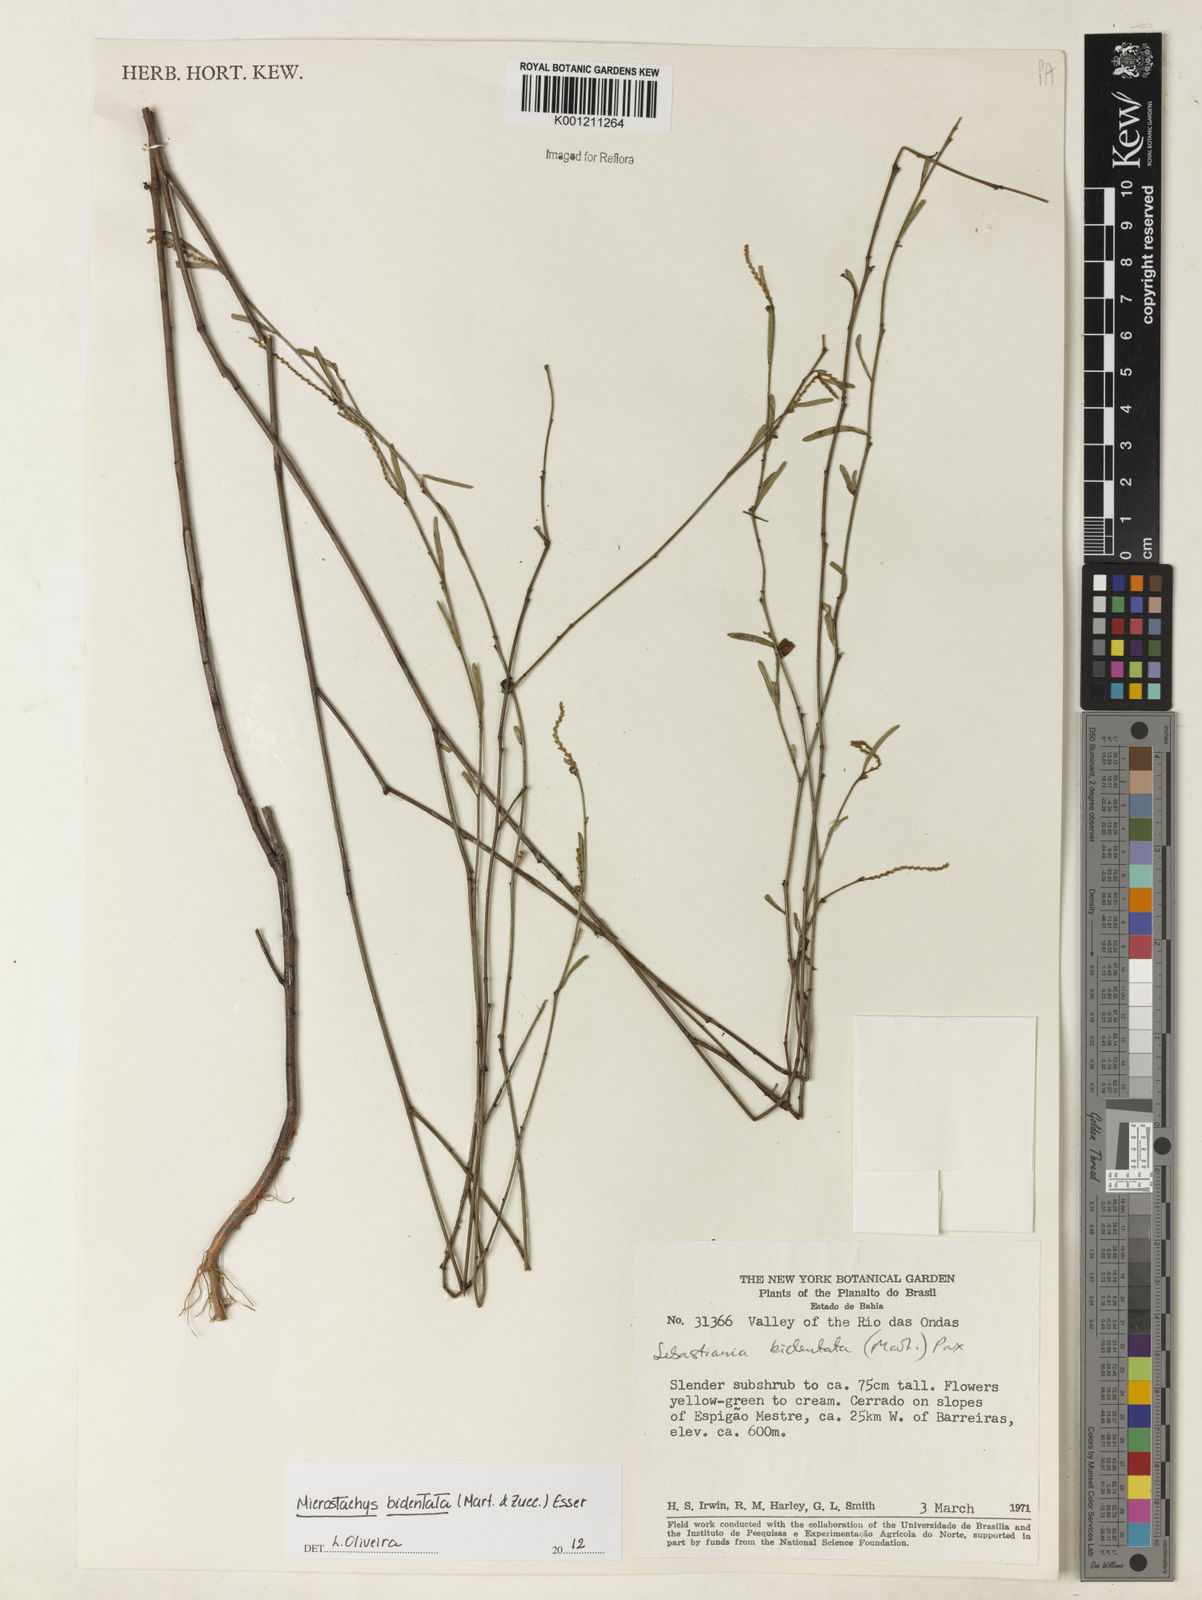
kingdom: Plantae
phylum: Tracheophyta
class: Magnoliopsida
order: Malpighiales
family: Euphorbiaceae
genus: Microstachys
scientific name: Microstachys bidentata
